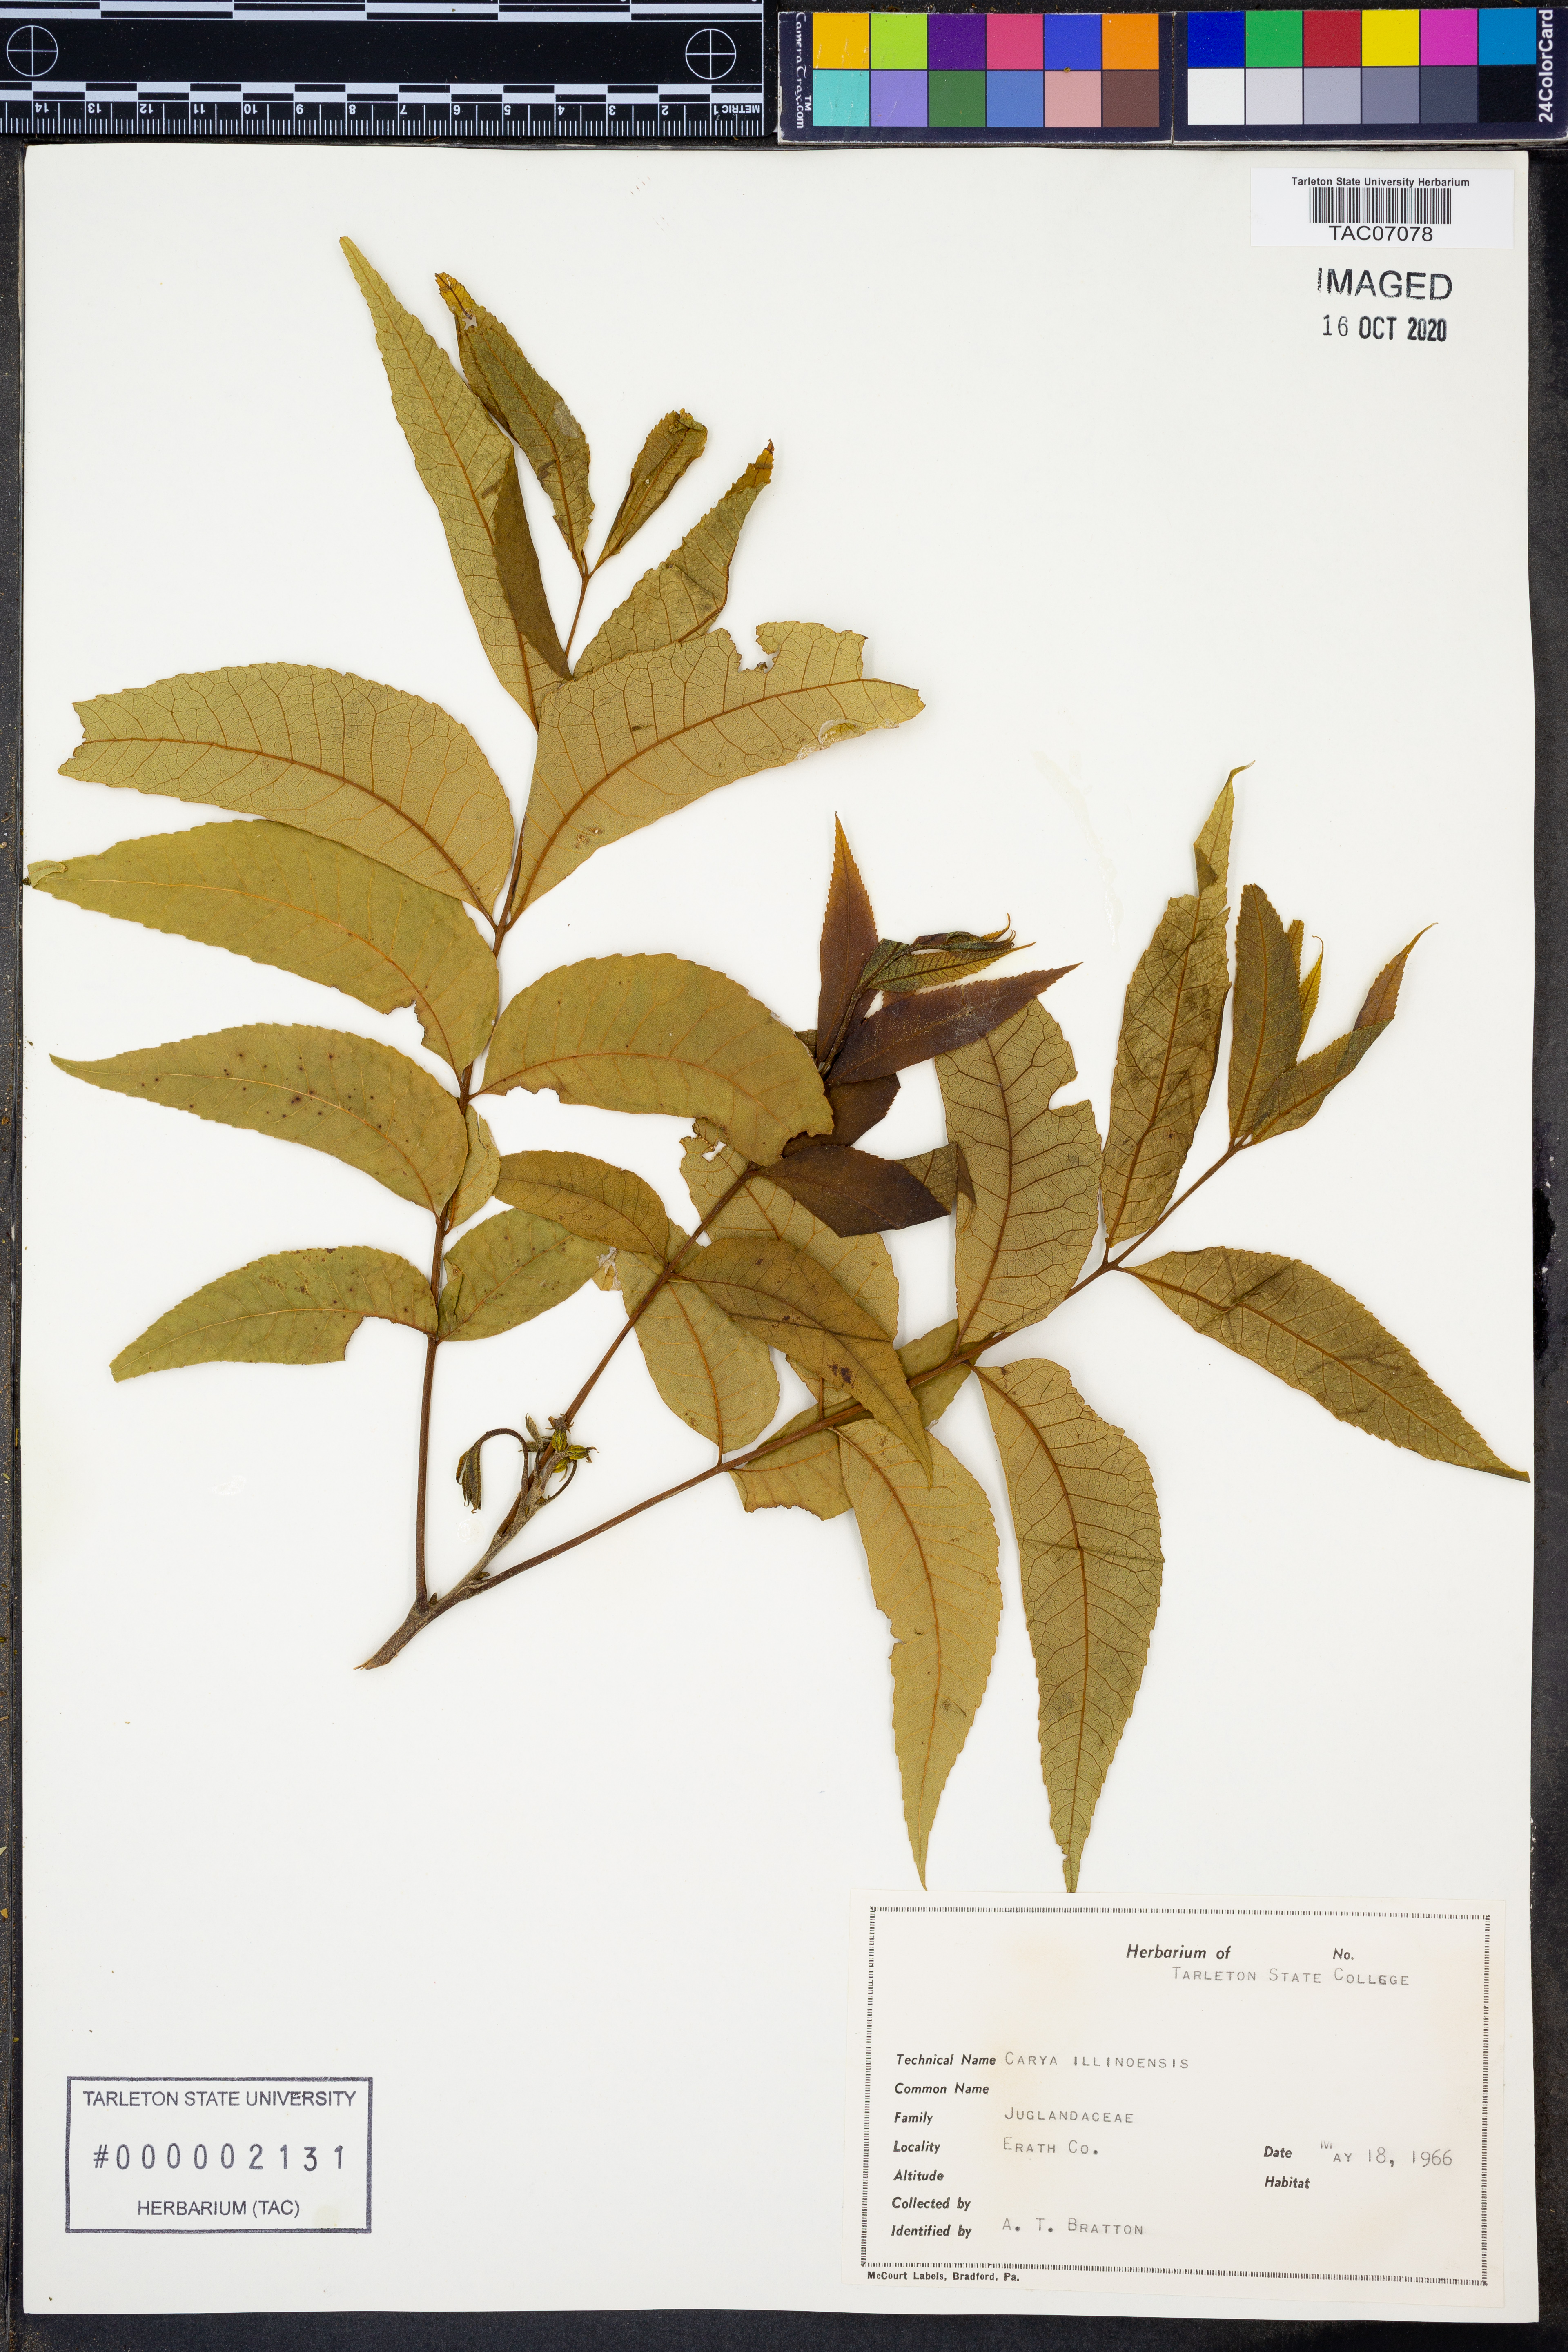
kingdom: Plantae
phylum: Tracheophyta
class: Magnoliopsida
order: Fagales
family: Juglandaceae
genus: Carya
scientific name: Carya
